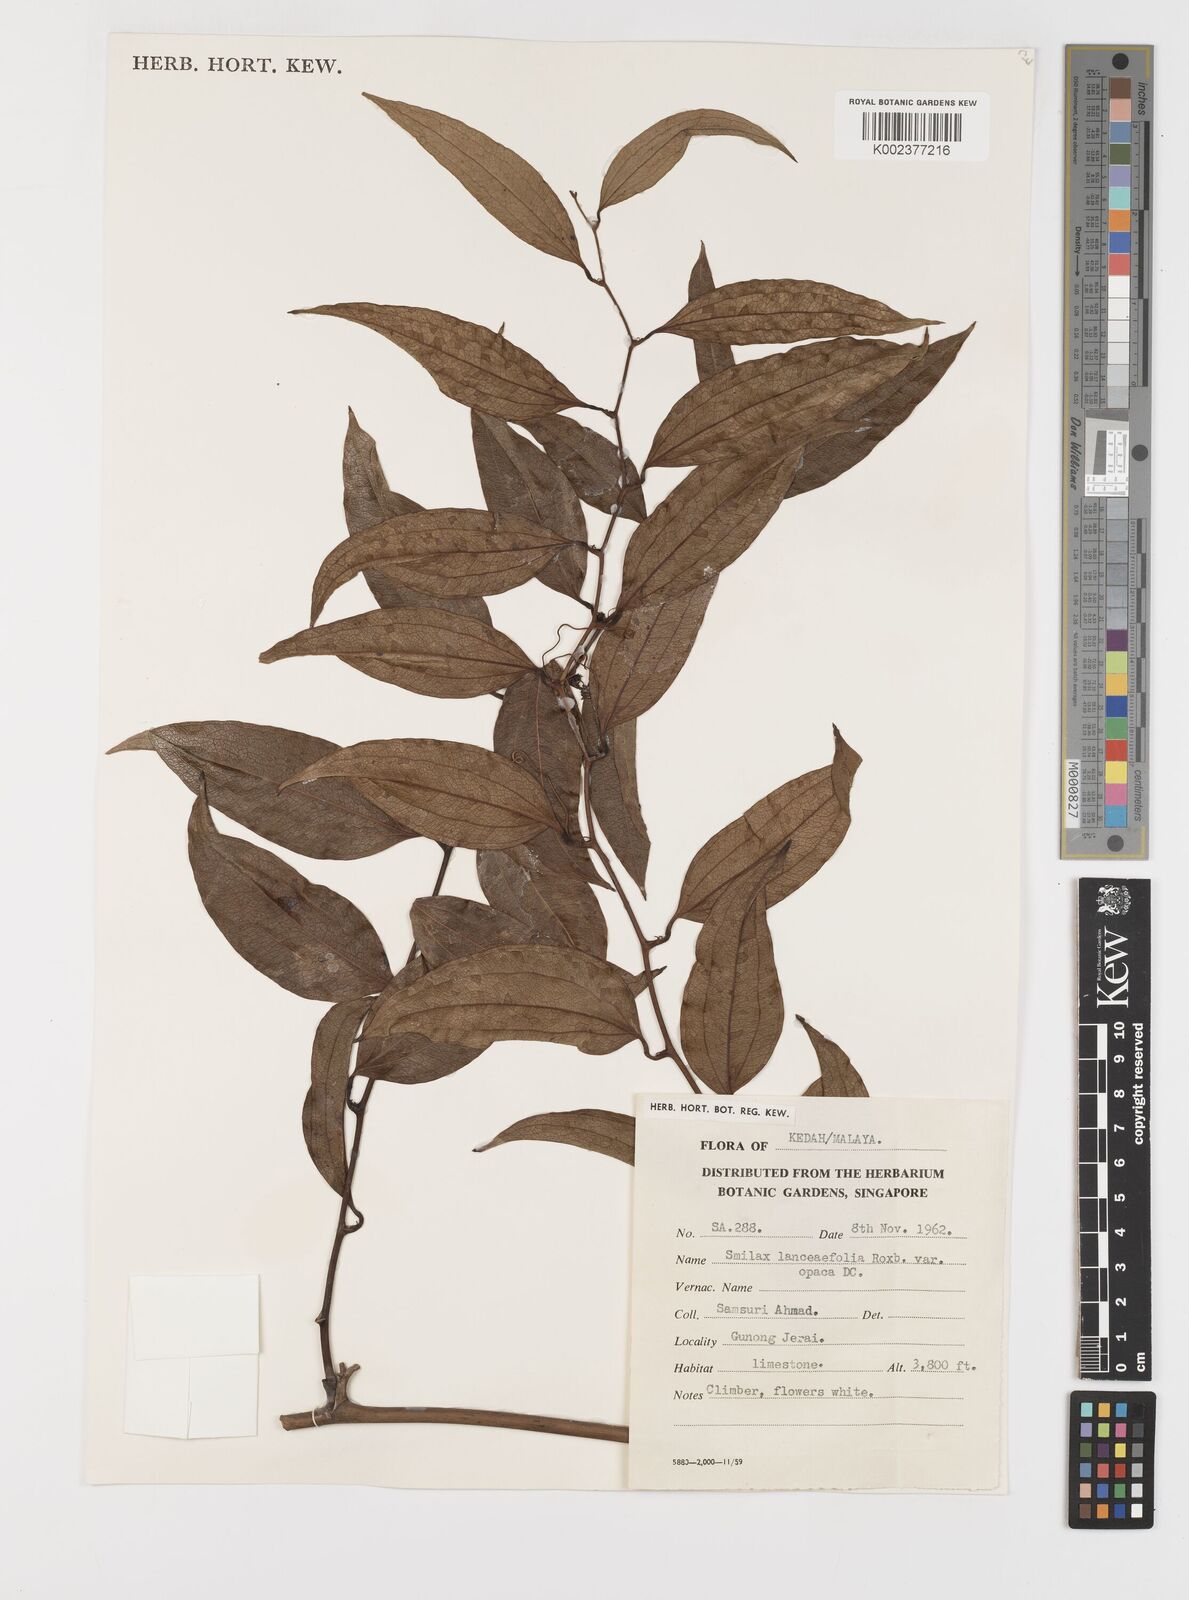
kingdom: Plantae
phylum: Tracheophyta
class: Liliopsida
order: Liliales
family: Smilacaceae
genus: Smilax
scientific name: Smilax laevis
